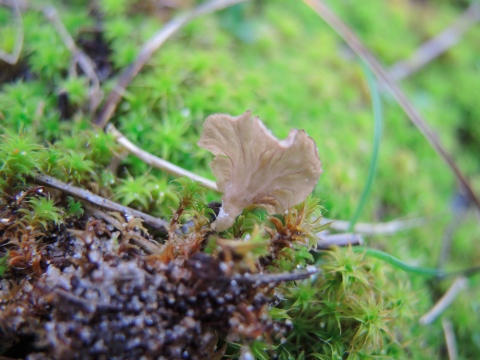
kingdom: Fungi
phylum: Basidiomycota
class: Agaricomycetes
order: Agaricales
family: Hygrophoraceae
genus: Arrhenia
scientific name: Arrhenia spathulata
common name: skæv fontænehat
